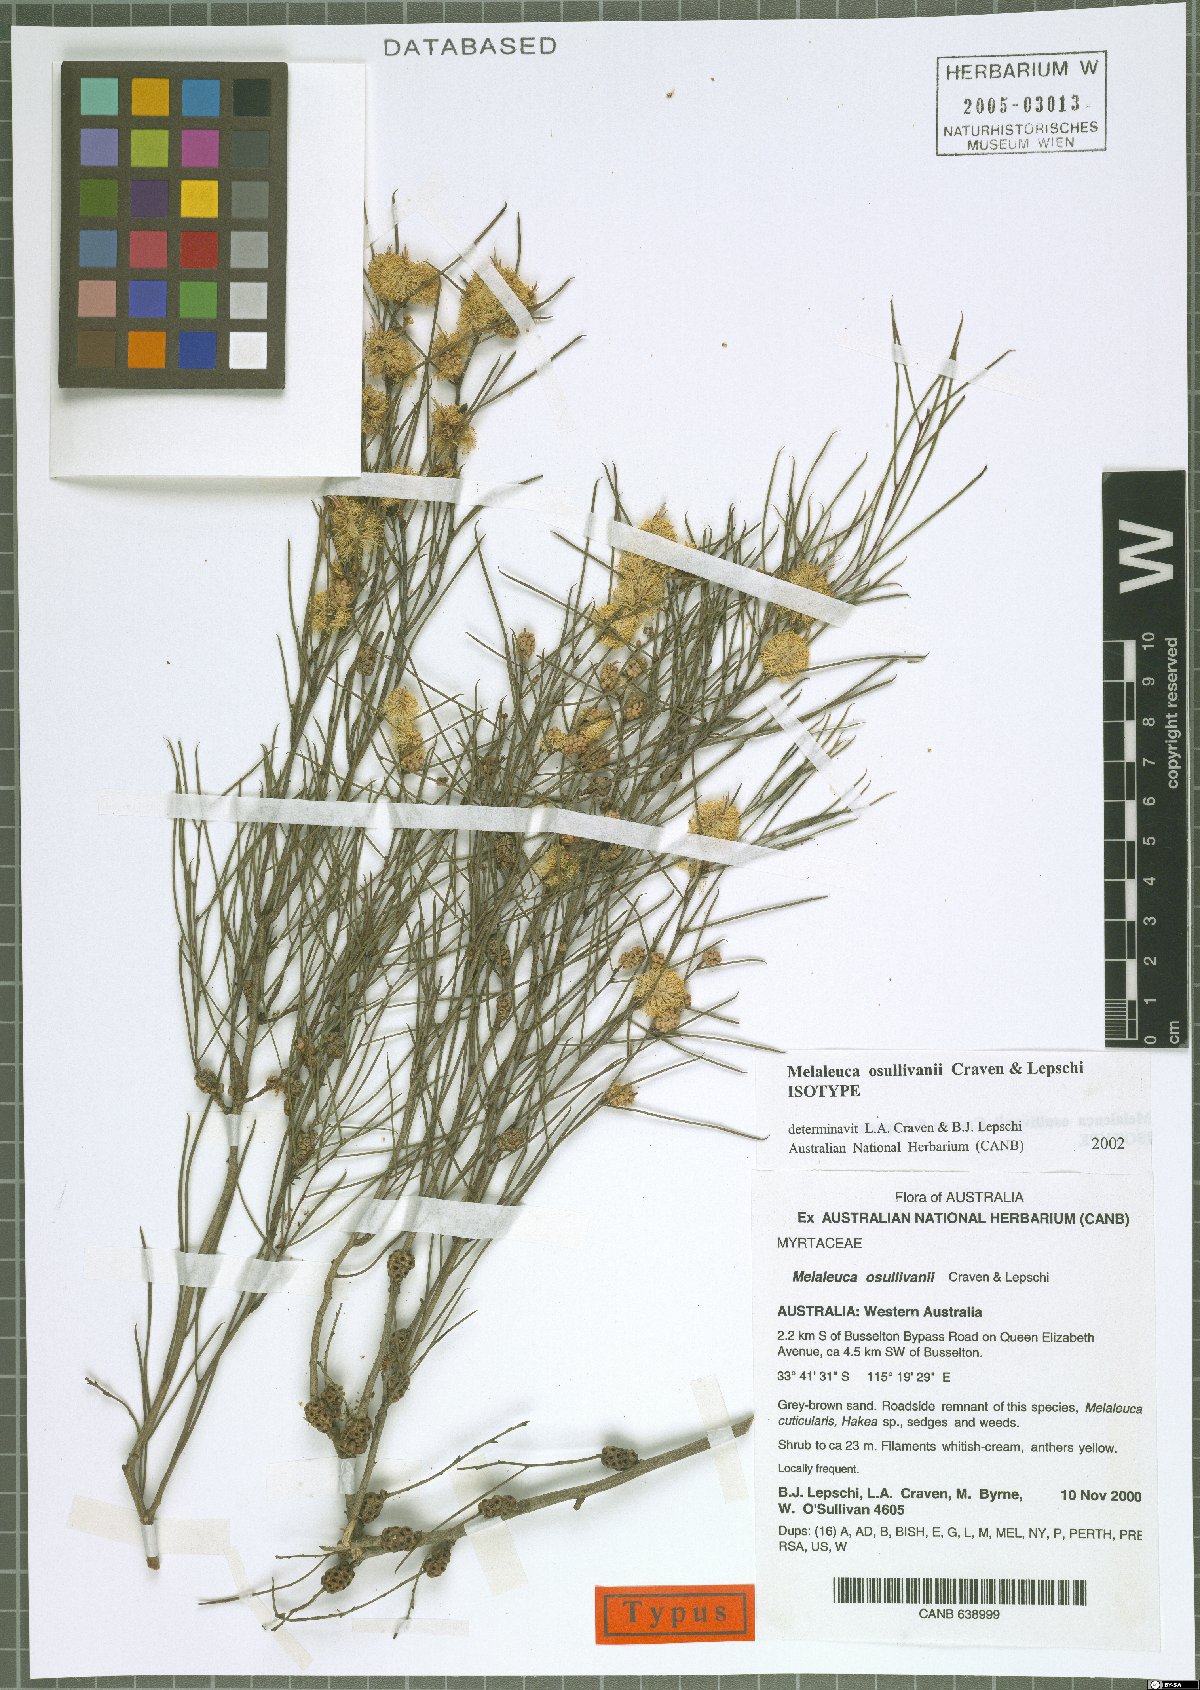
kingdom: Plantae
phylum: Tracheophyta
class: Magnoliopsida
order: Myrtales
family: Myrtaceae
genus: Melaleuca
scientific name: Melaleuca osullivanii
